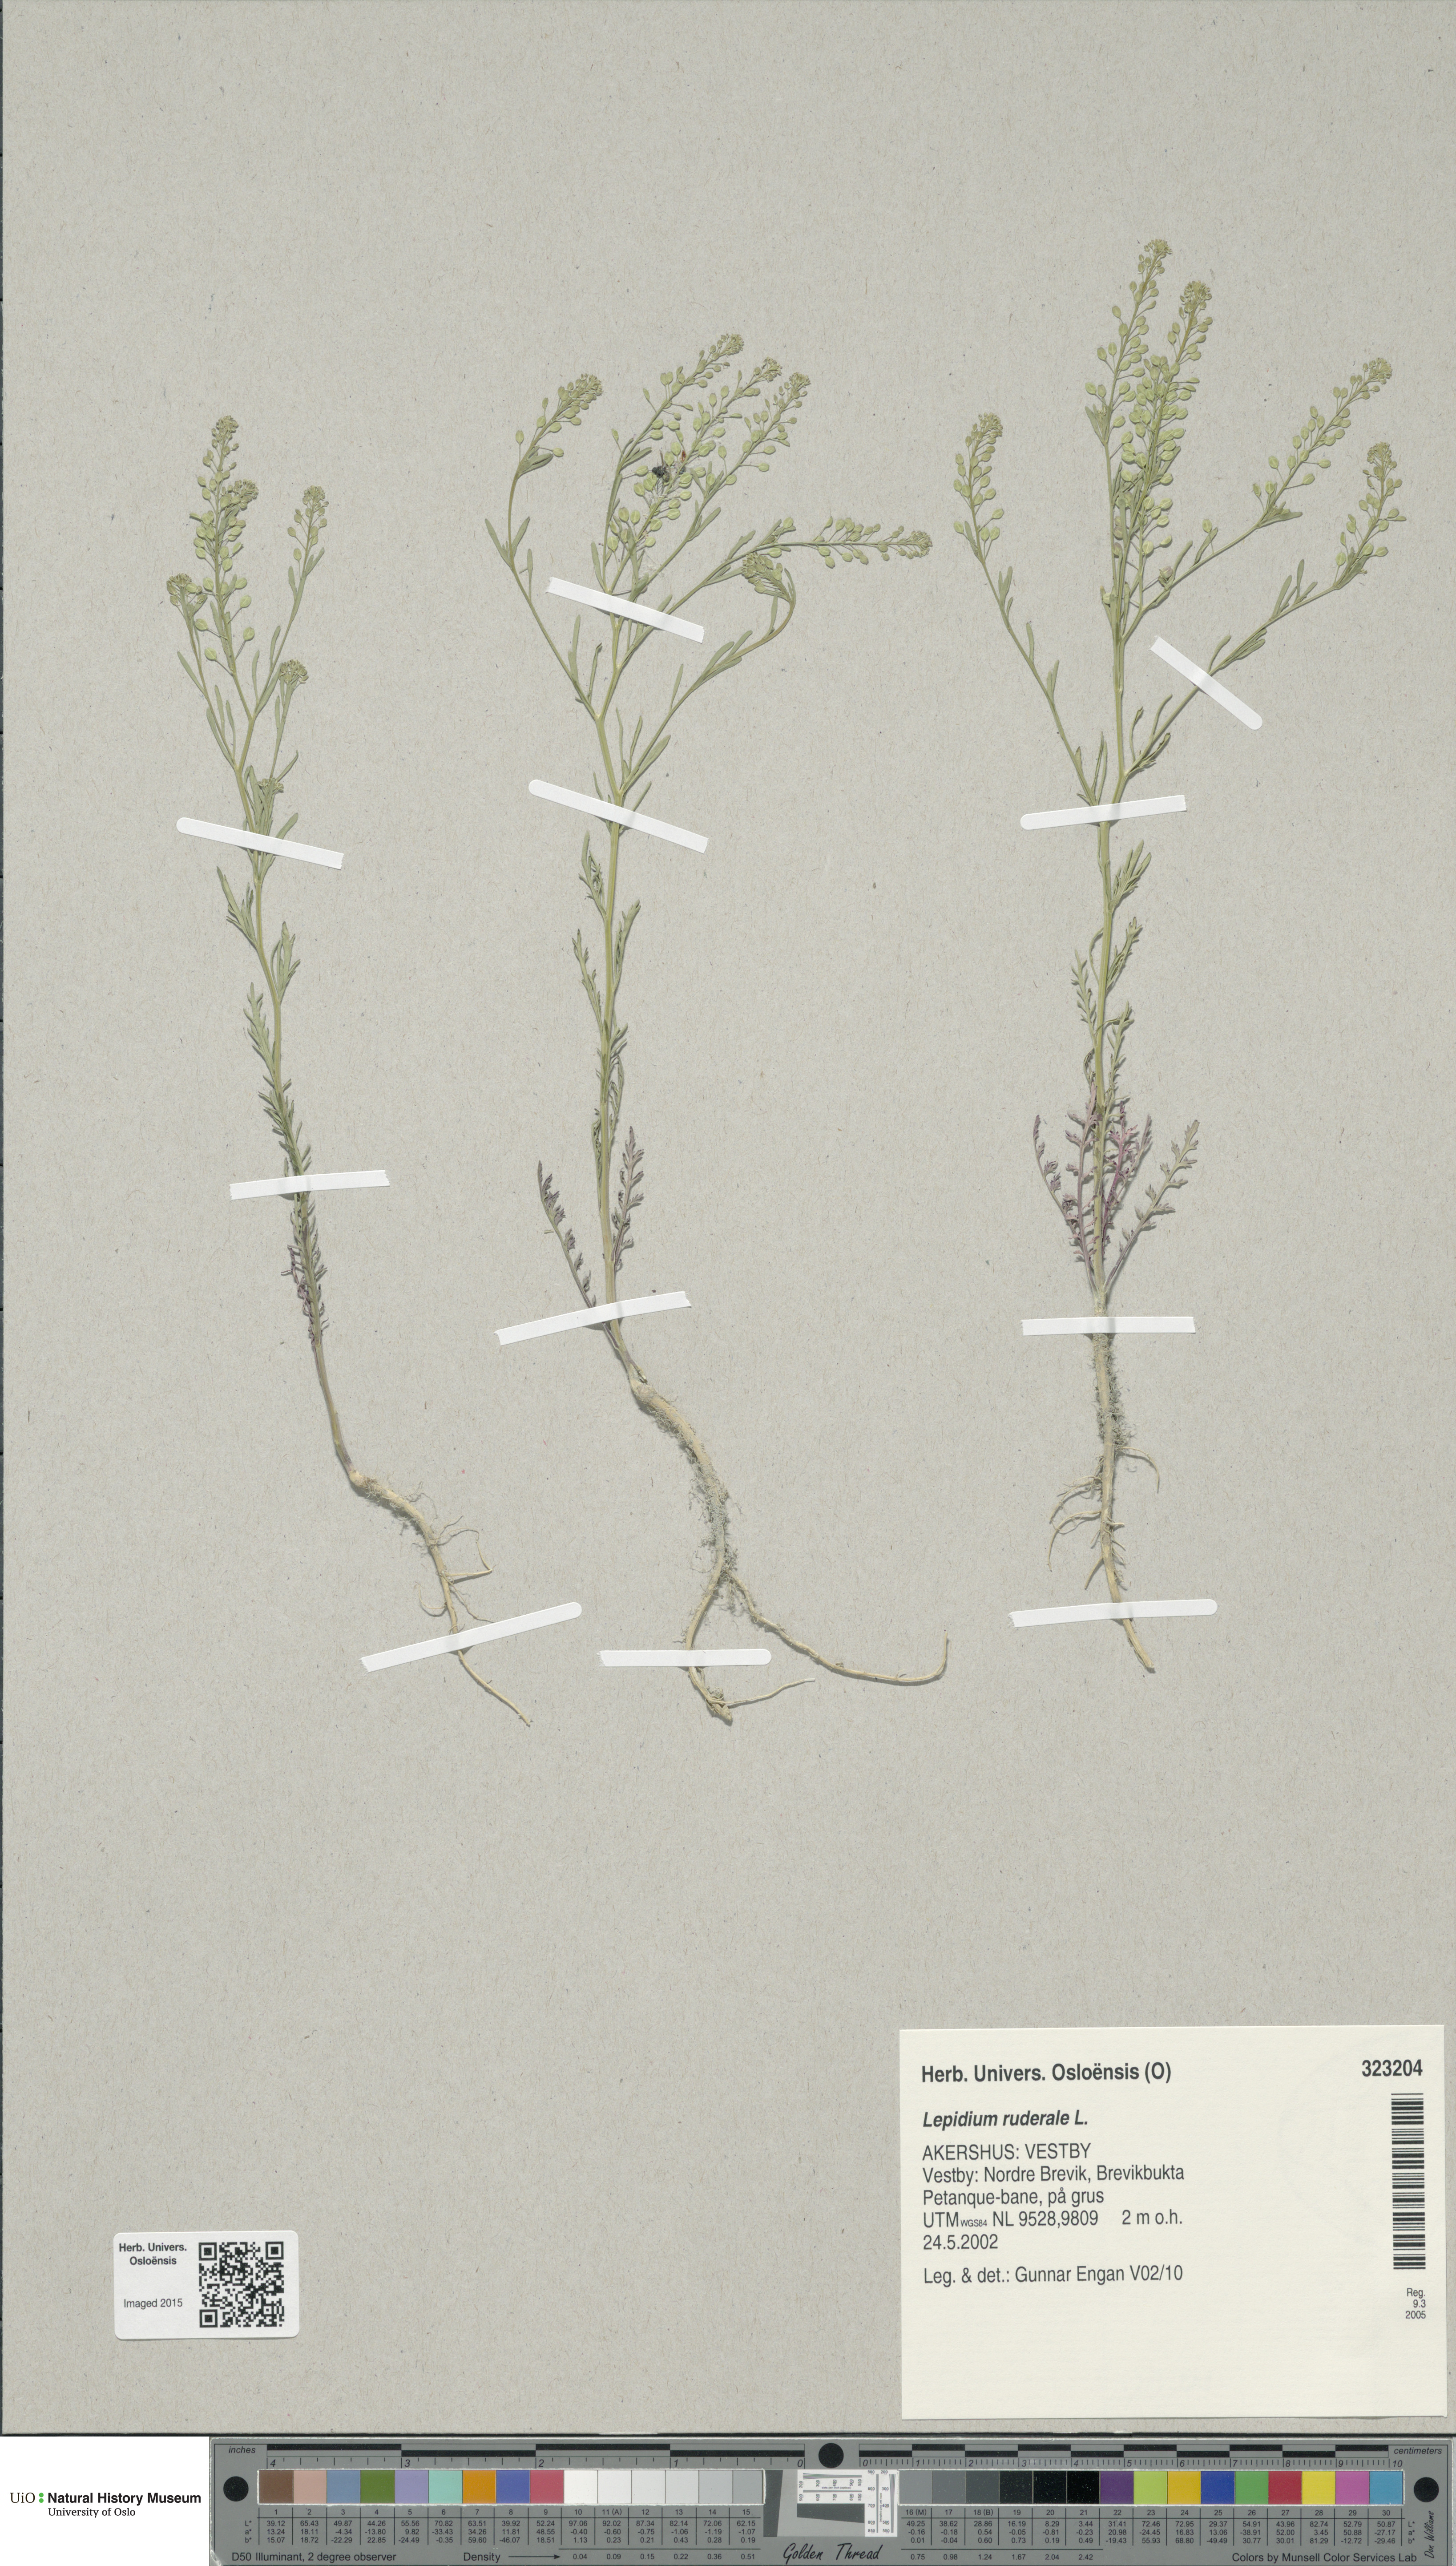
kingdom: Plantae
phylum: Tracheophyta
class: Magnoliopsida
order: Brassicales
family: Brassicaceae
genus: Lepidium
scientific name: Lepidium ruderale
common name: Narrow-leaved pepperwort
